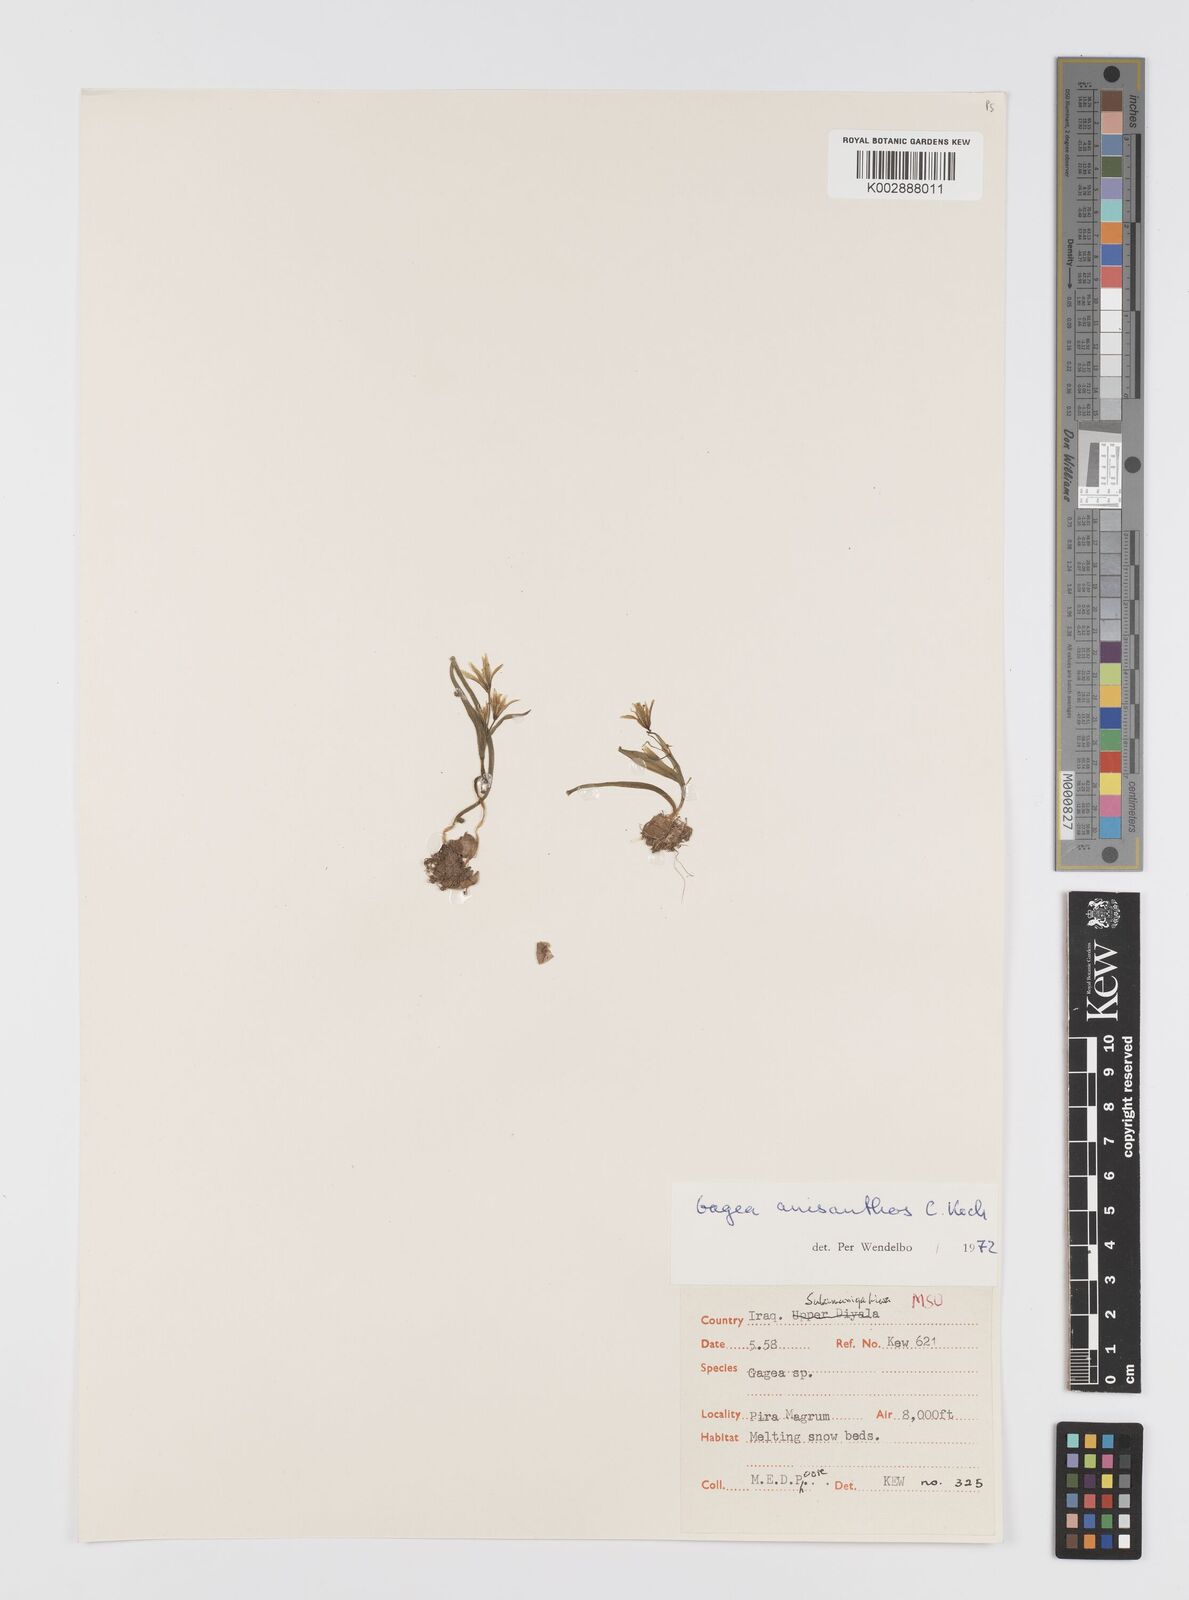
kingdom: Plantae
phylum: Tracheophyta
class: Liliopsida
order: Liliales
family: Liliaceae
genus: Gagea
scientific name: Gagea fragifera
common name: Lily
